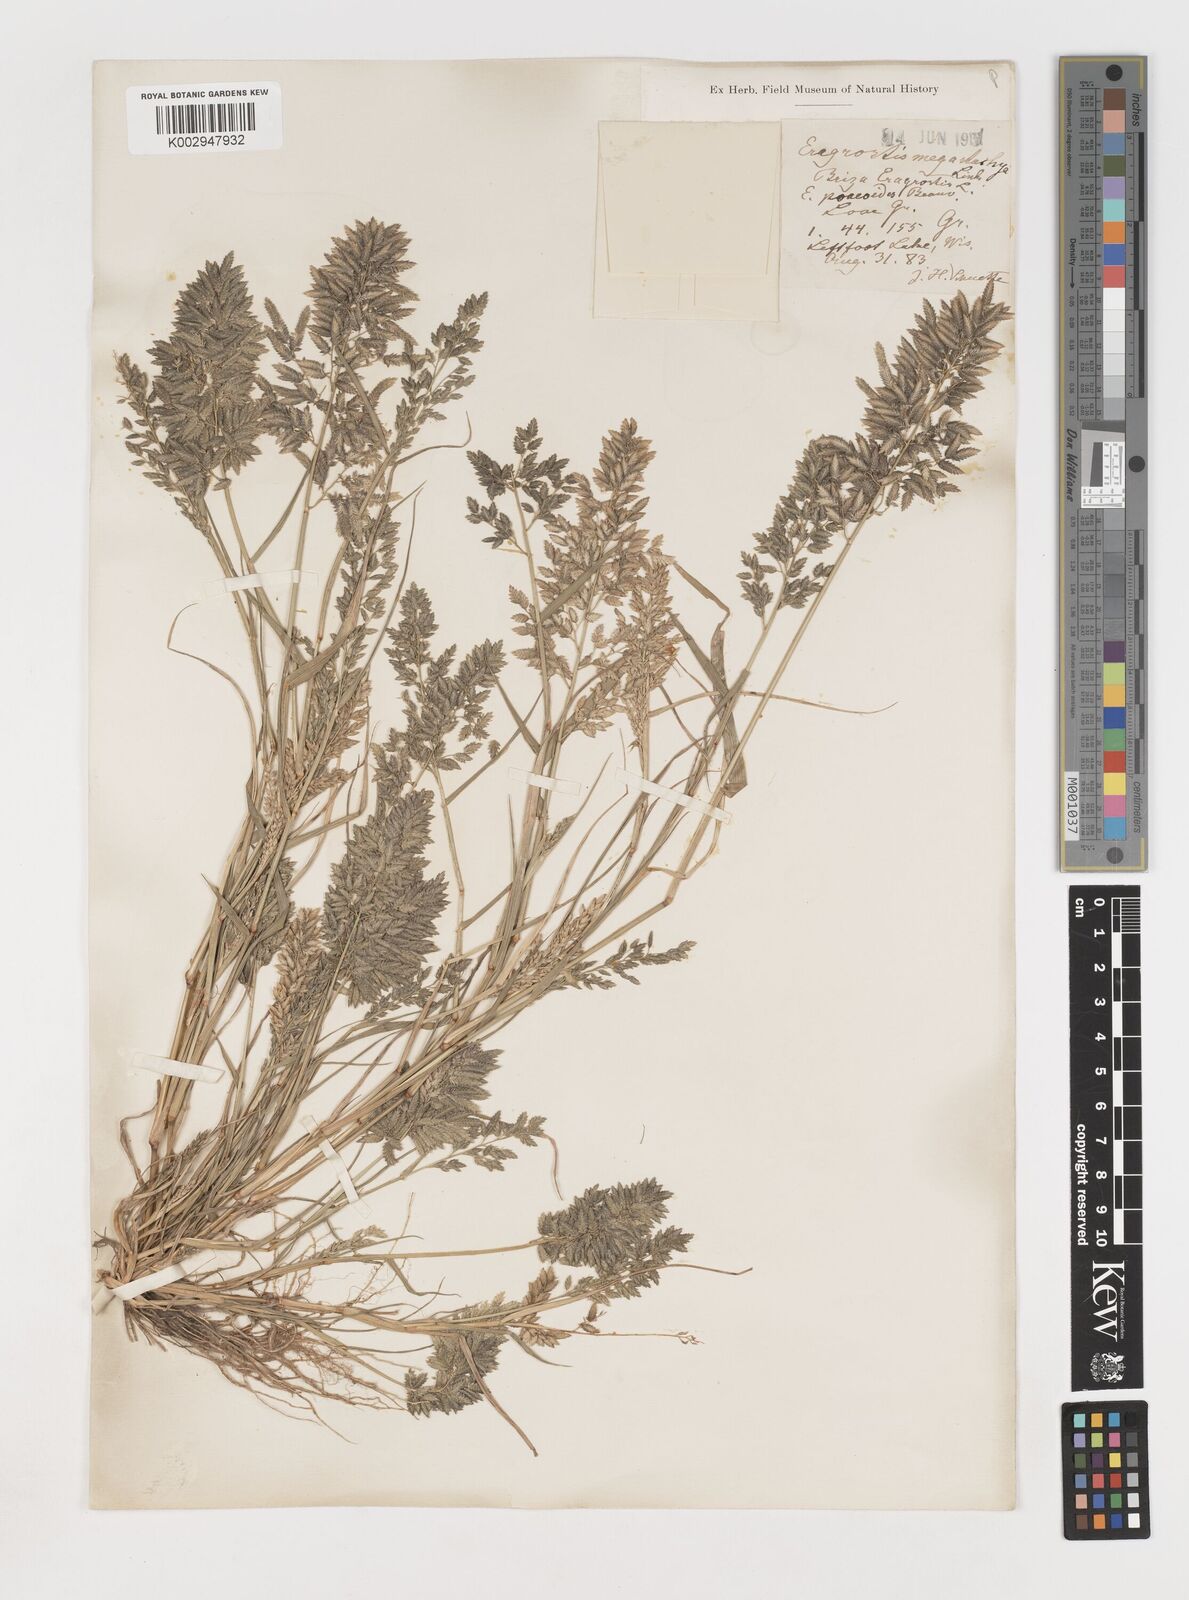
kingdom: Plantae
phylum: Tracheophyta
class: Liliopsida
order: Poales
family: Poaceae
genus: Eragrostis
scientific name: Eragrostis
